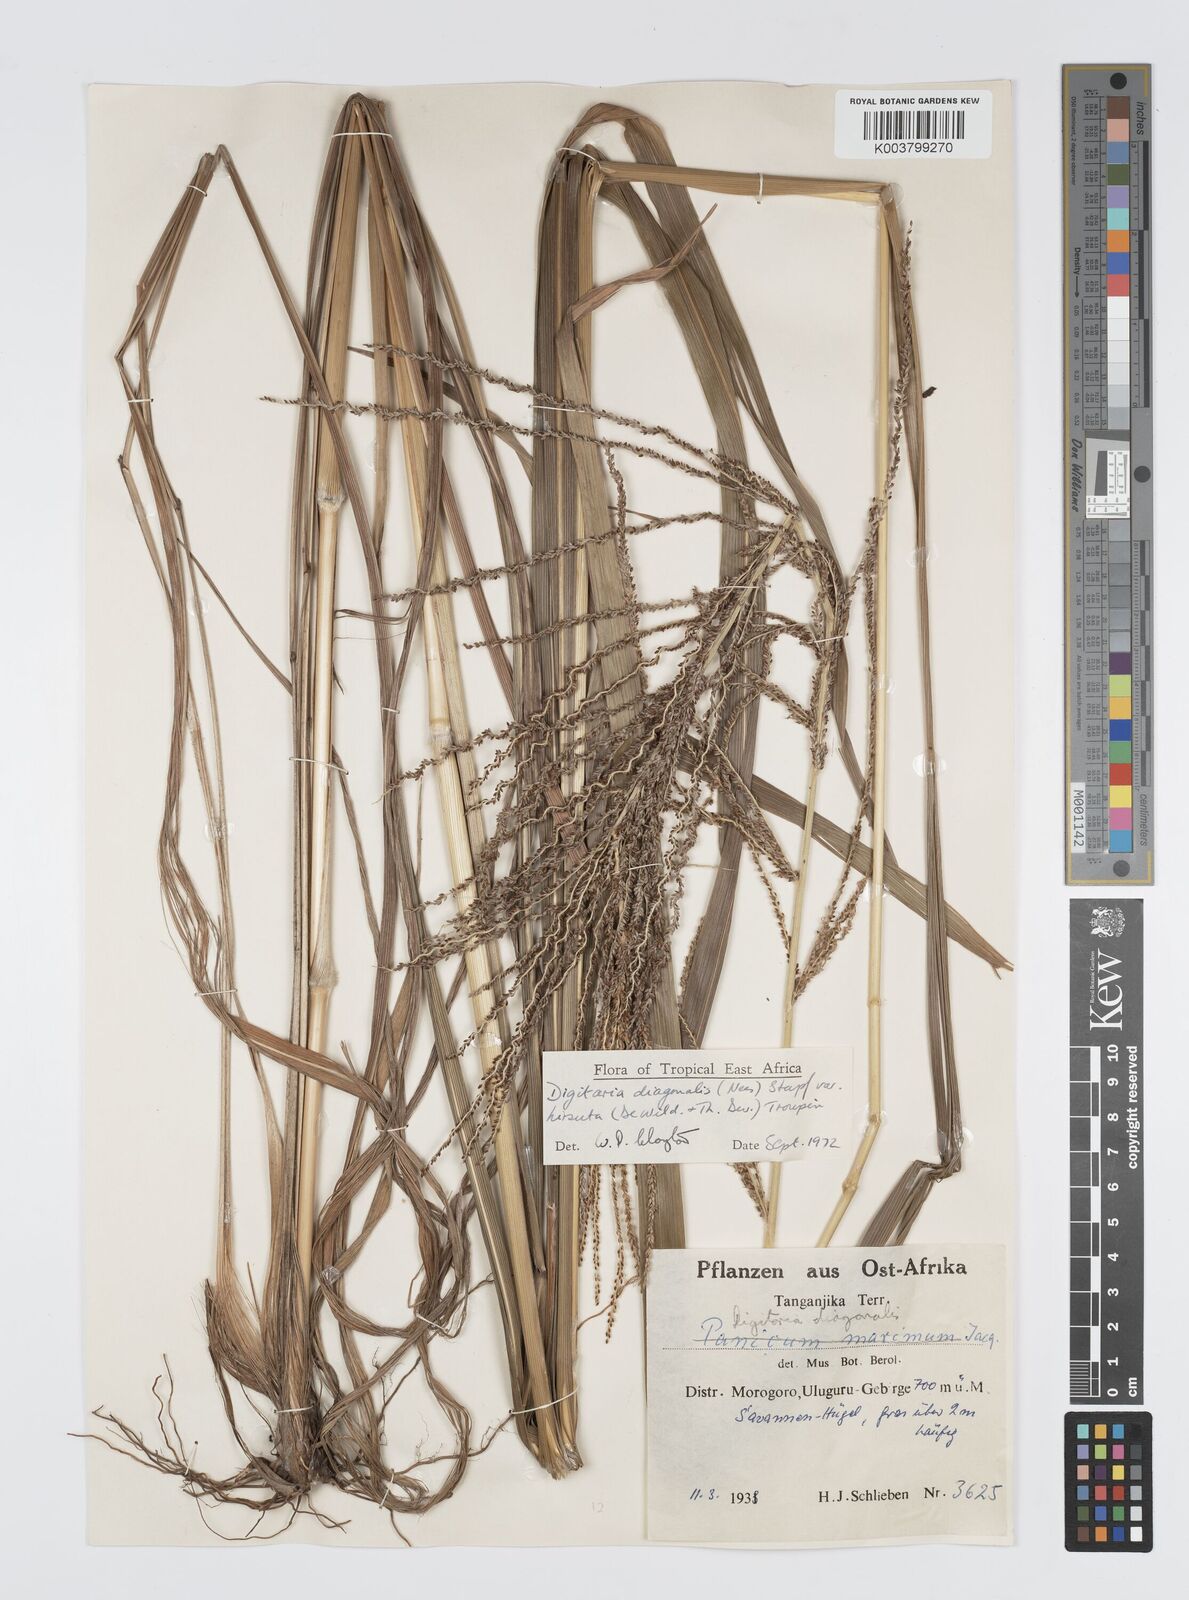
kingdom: Plantae
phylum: Tracheophyta
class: Liliopsida
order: Poales
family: Poaceae
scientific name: Poaceae
